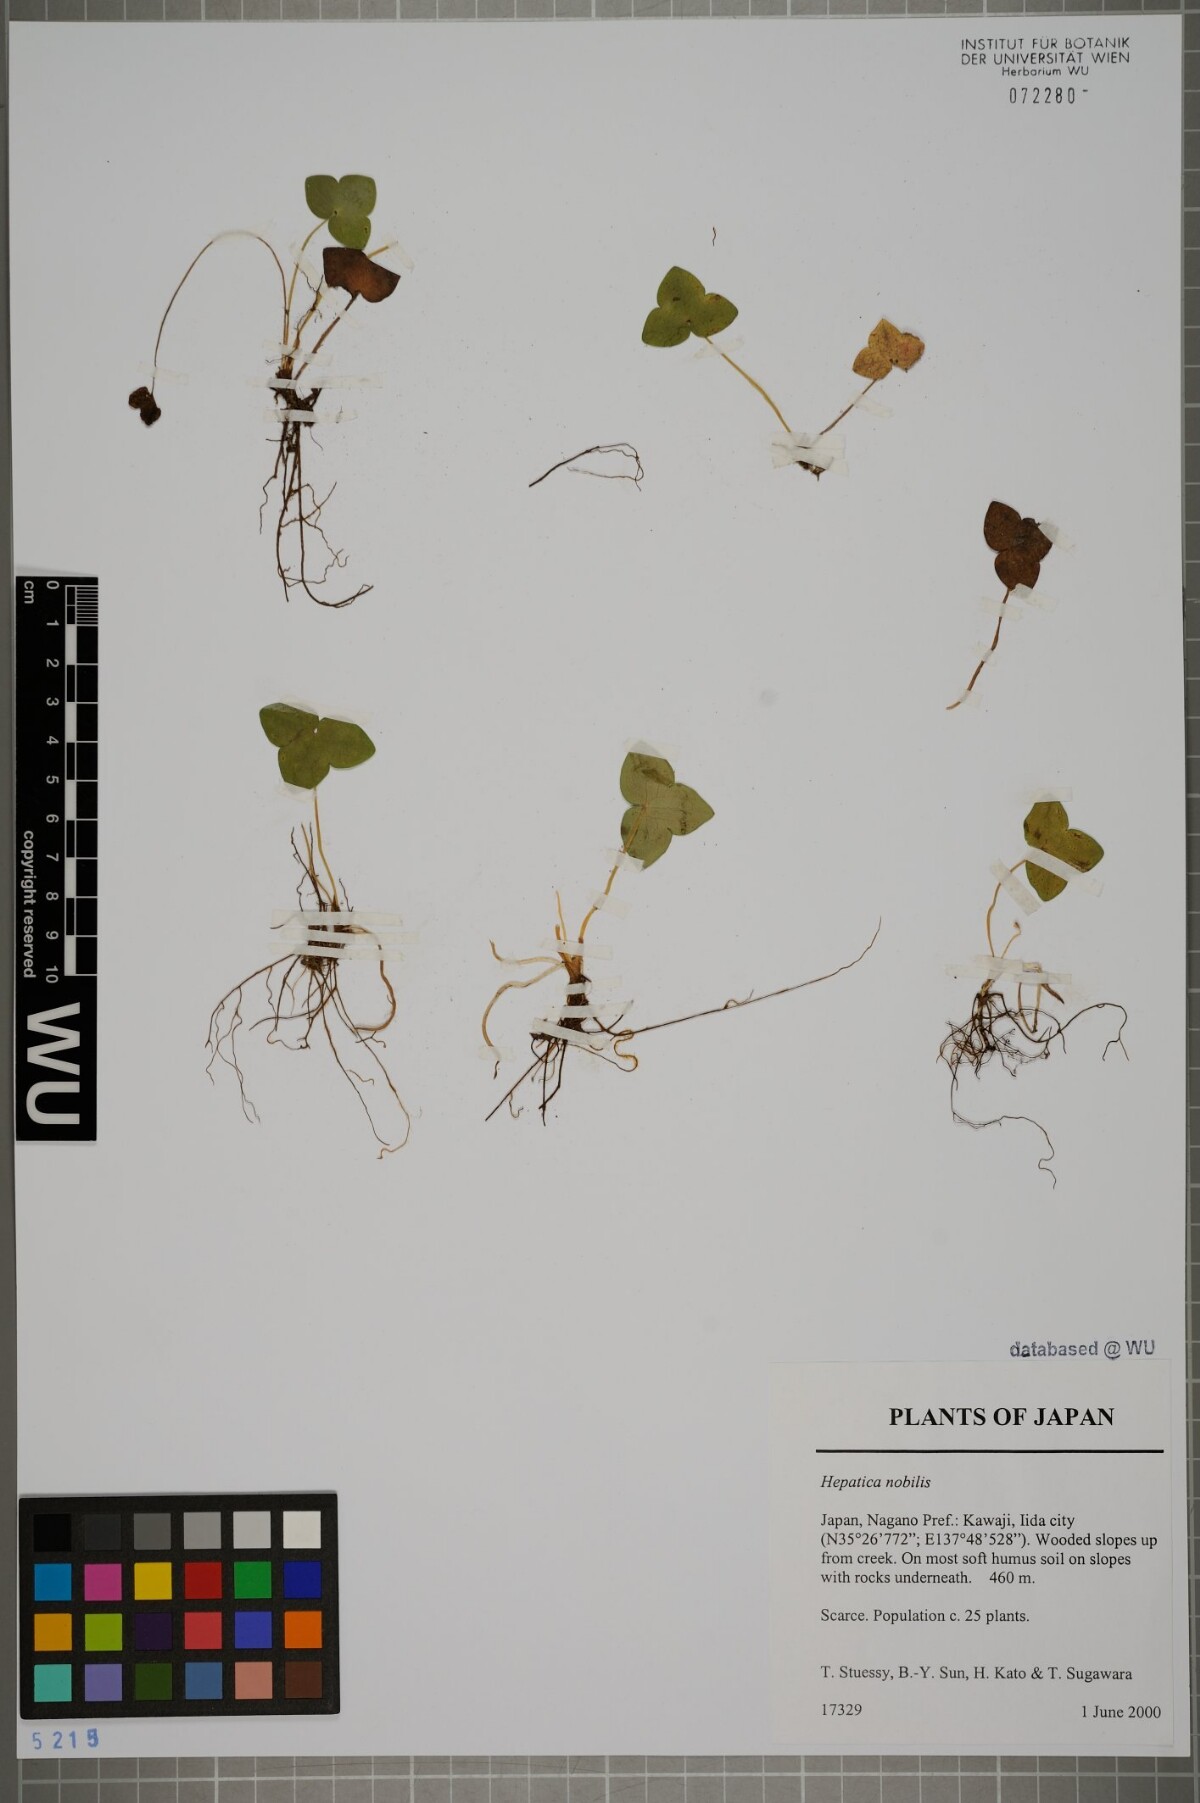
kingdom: Plantae
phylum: Tracheophyta
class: Magnoliopsida
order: Ranunculales
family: Ranunculaceae
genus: Hepatica
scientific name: Hepatica nobilis
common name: Liverleaf
